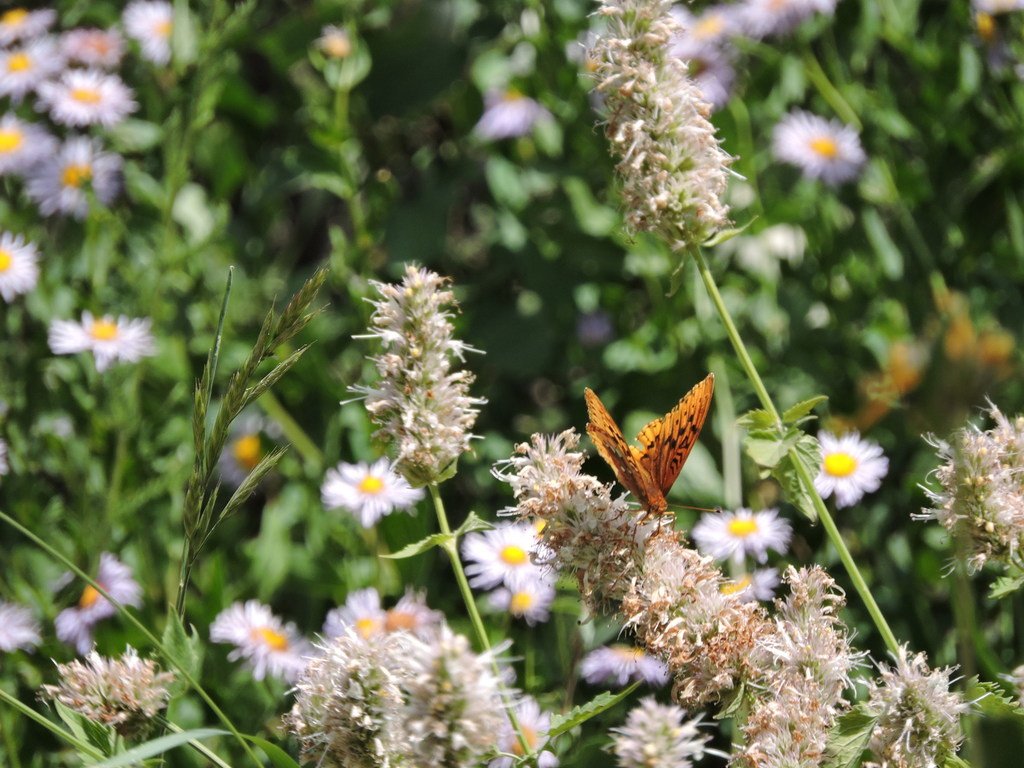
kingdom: Animalia
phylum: Arthropoda
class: Insecta
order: Lepidoptera
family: Nymphalidae
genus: Speyeria
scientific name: Speyeria cybele
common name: Great Spangled Fritillary
